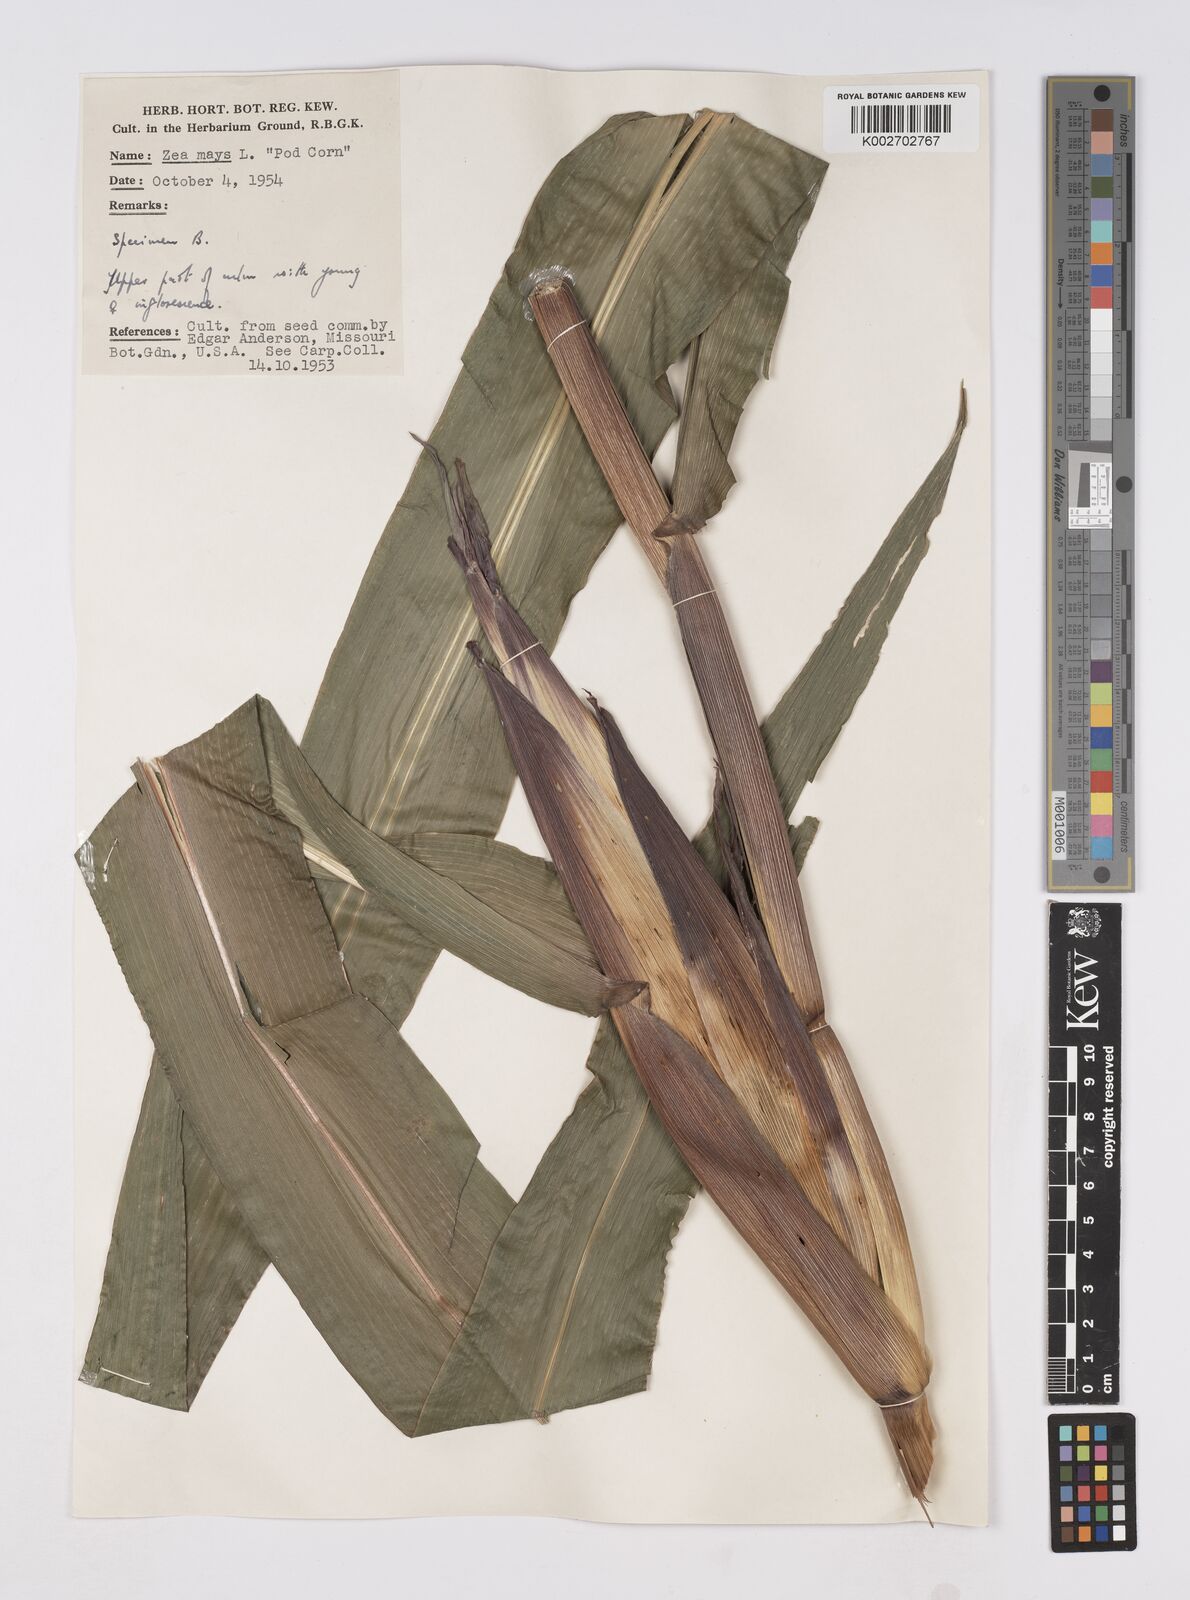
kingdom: Plantae
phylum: Tracheophyta
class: Liliopsida
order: Poales
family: Poaceae
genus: Zea
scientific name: Zea mays
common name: Maize
